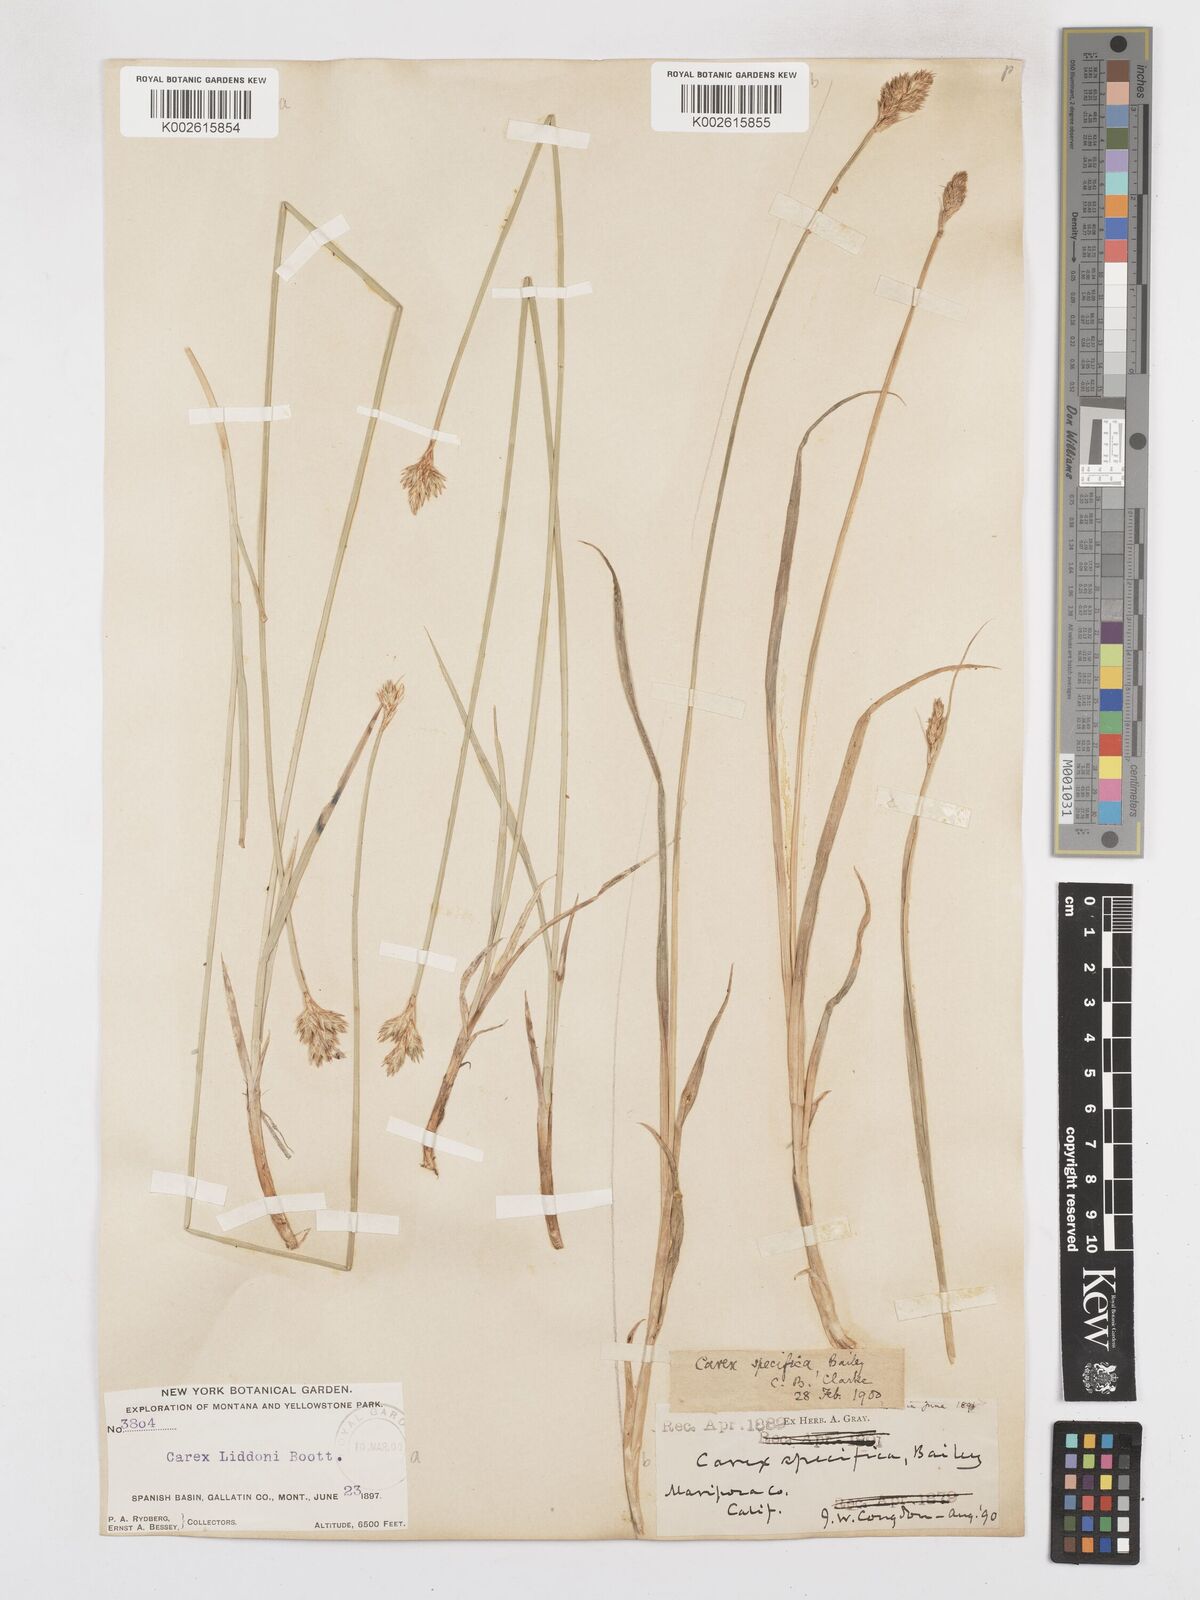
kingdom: Plantae
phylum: Tracheophyta
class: Liliopsida
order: Poales
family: Cyperaceae
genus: Carex
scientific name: Carex specifica
